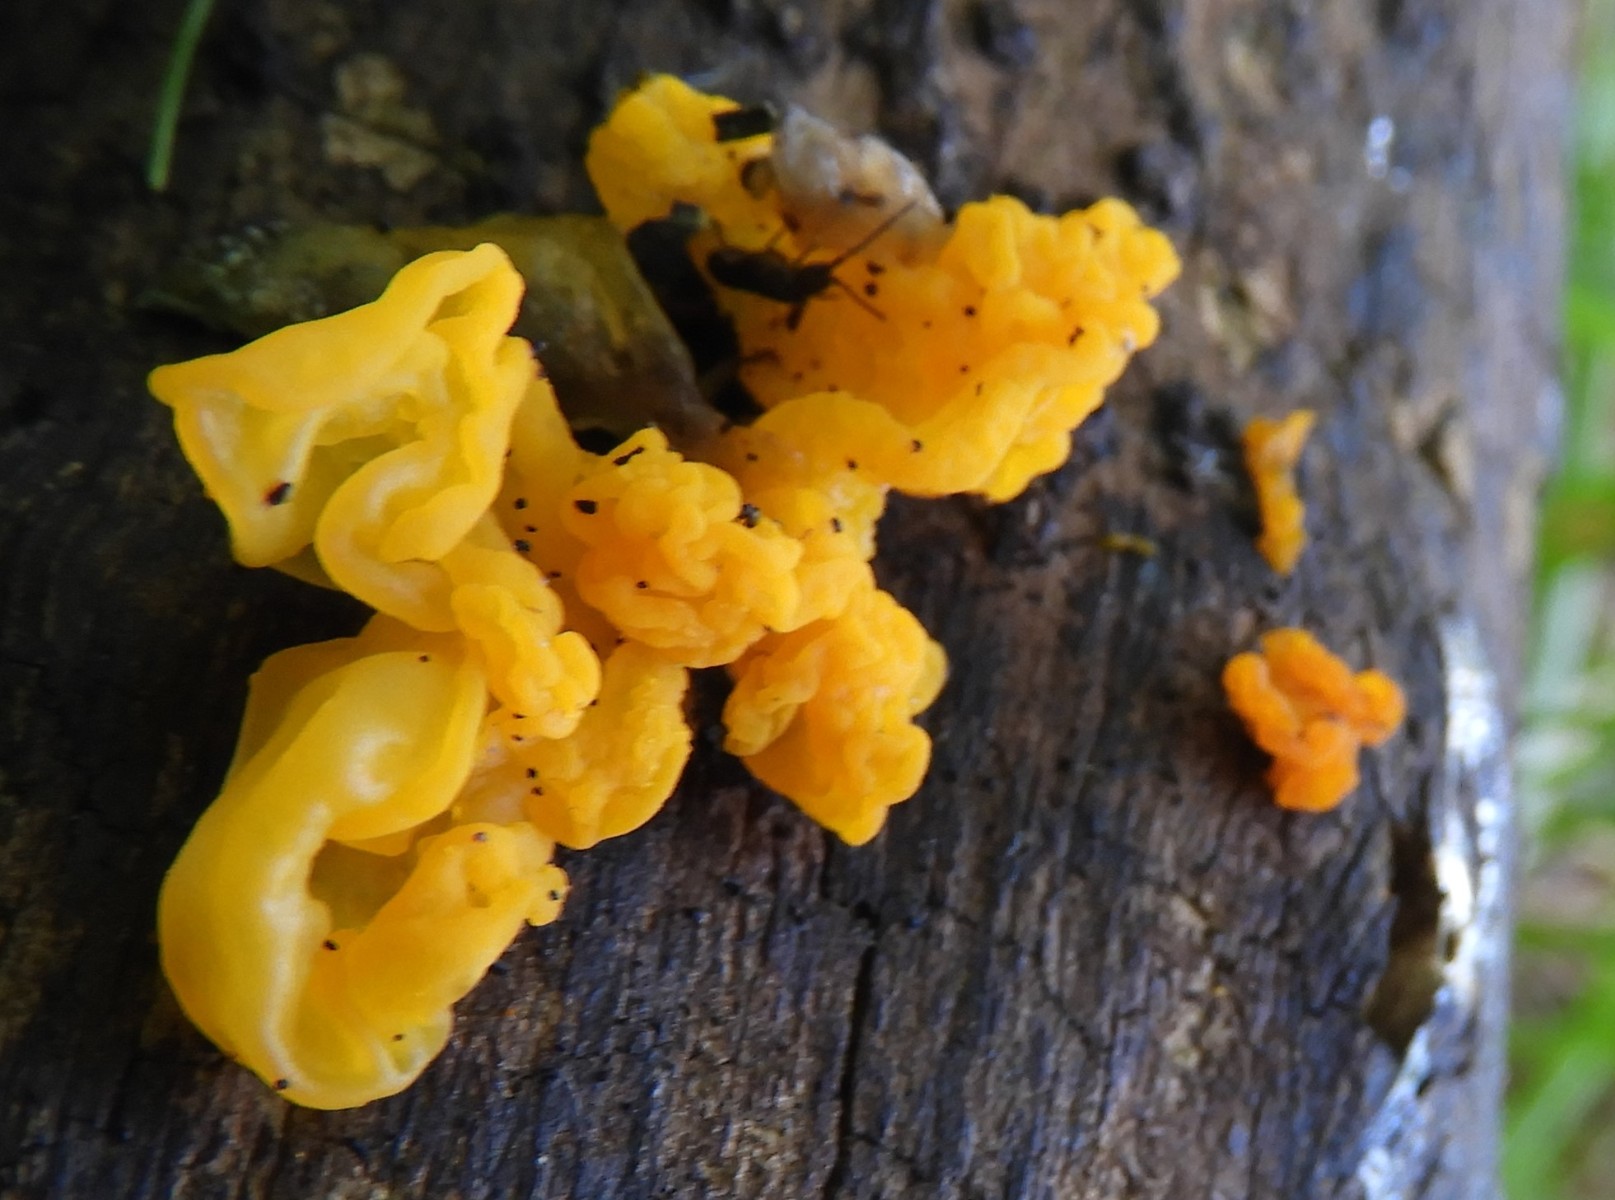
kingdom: Fungi
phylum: Basidiomycota
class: Tremellomycetes
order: Tremellales
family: Tremellaceae
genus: Tremella
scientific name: Tremella mesenterica
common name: gul bævresvamp
